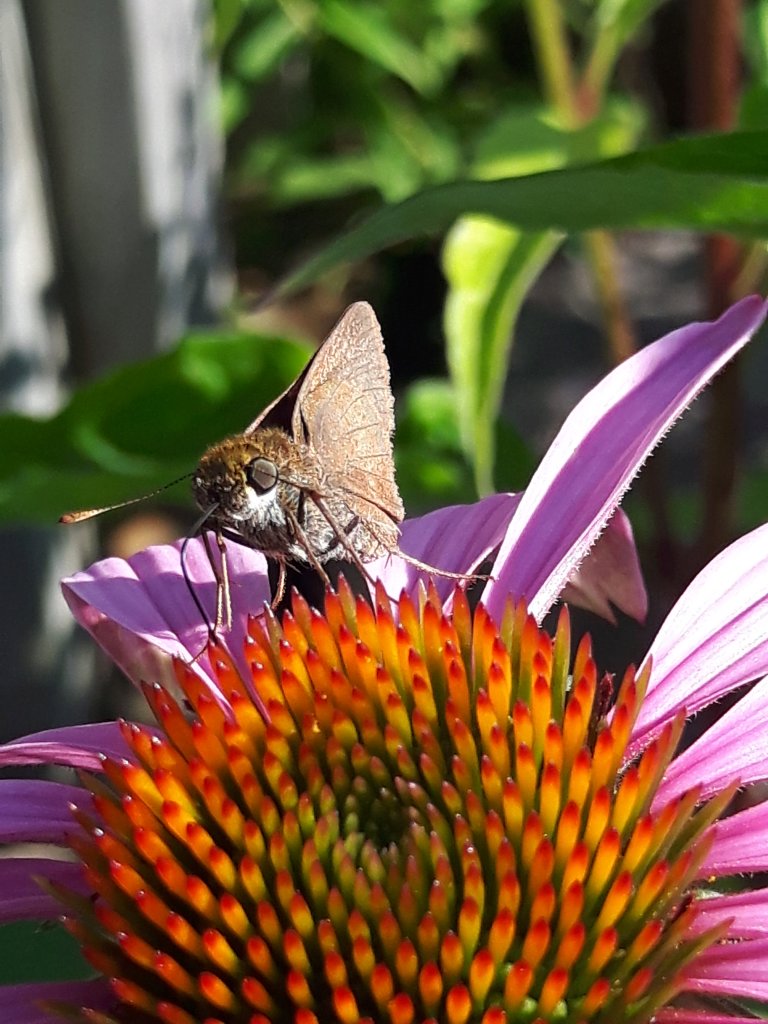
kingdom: Animalia
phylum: Arthropoda
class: Insecta
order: Lepidoptera
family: Hesperiidae
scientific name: Hesperiidae
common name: Skippers
